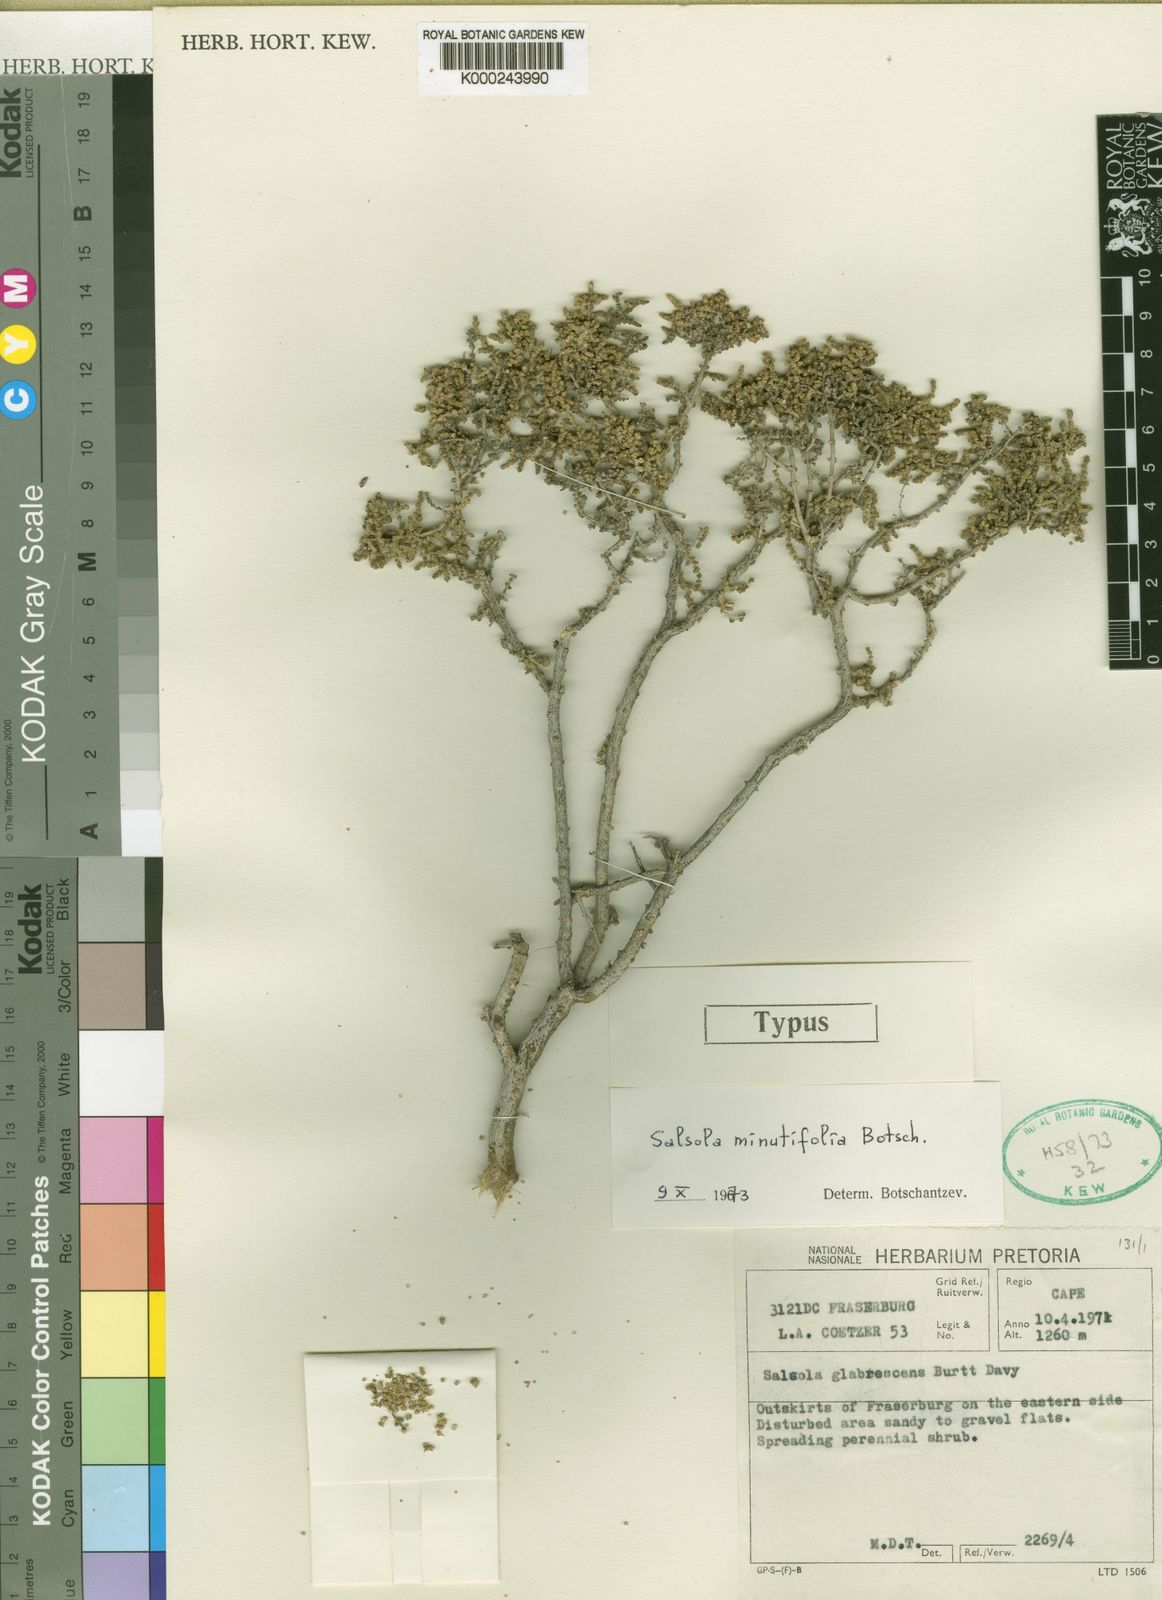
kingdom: Plantae
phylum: Tracheophyta
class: Magnoliopsida
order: Caryophyllales
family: Amaranthaceae
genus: Caroxylon
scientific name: Caroxylon minutifolium
